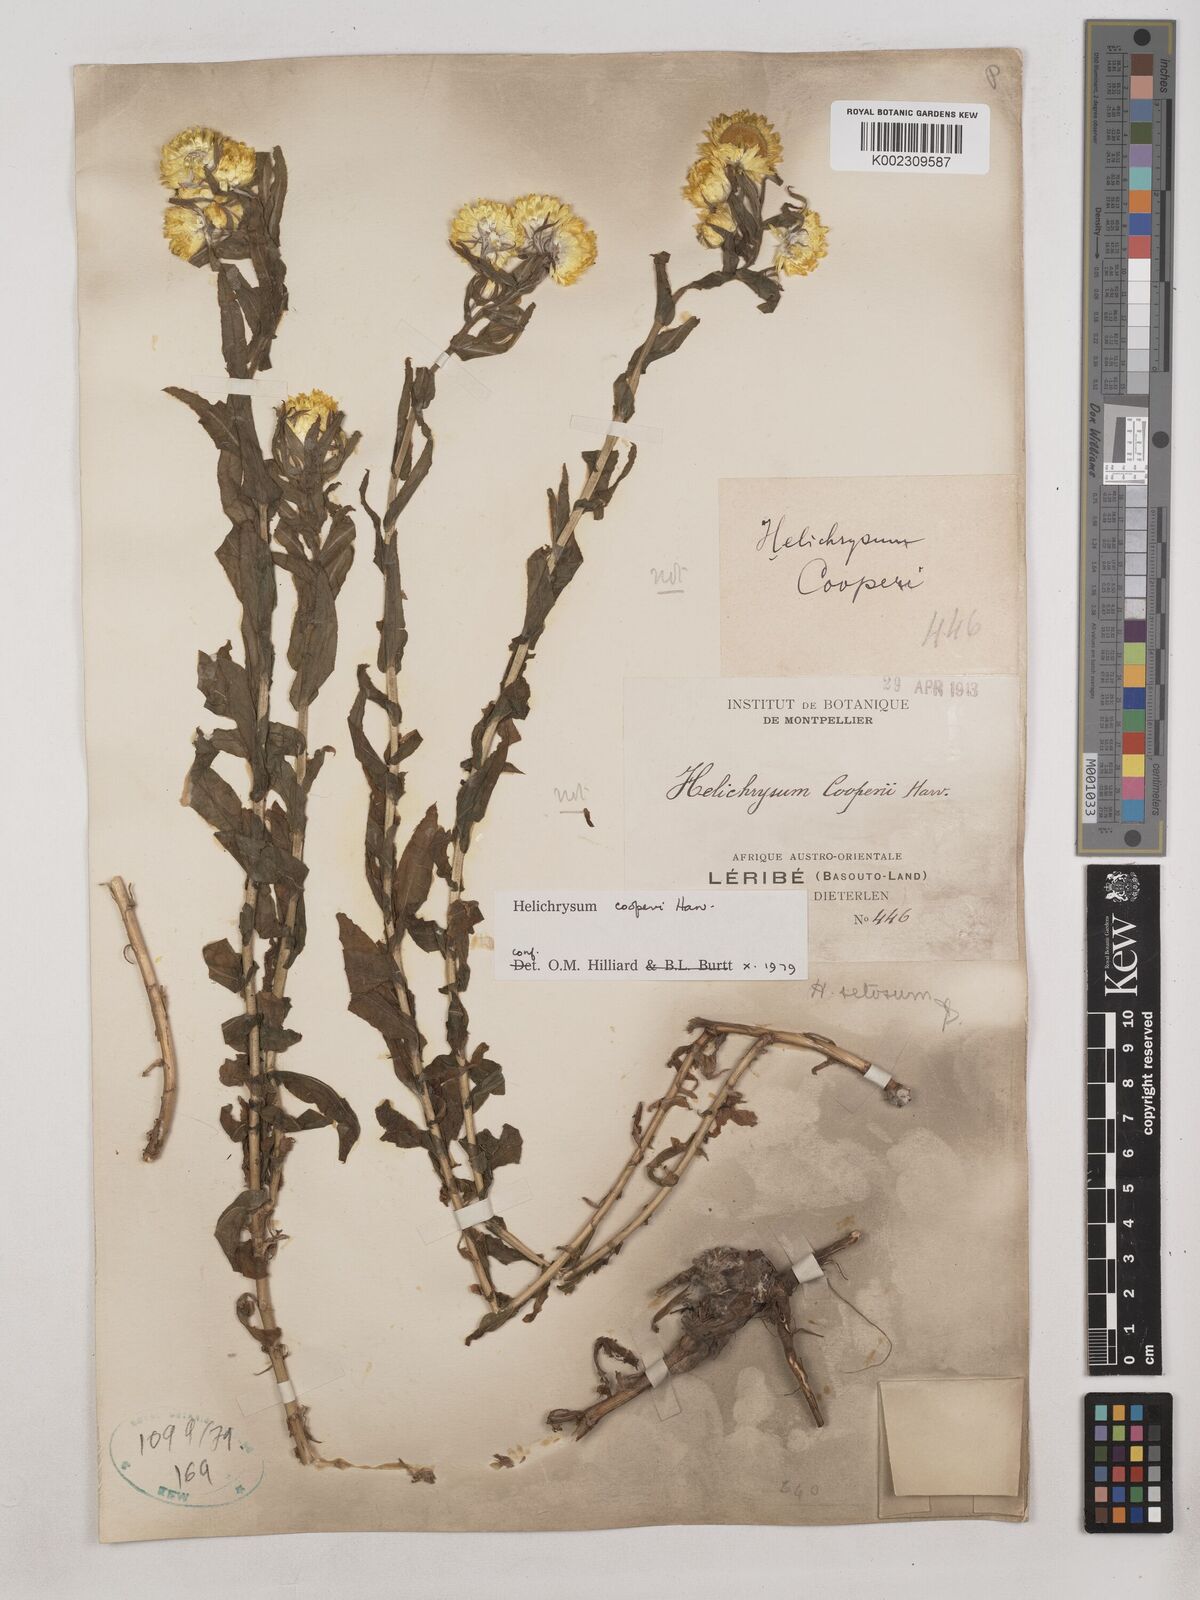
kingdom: Plantae
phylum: Tracheophyta
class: Magnoliopsida
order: Asterales
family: Asteraceae
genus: Helichrysum
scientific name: Helichrysum cooperi
